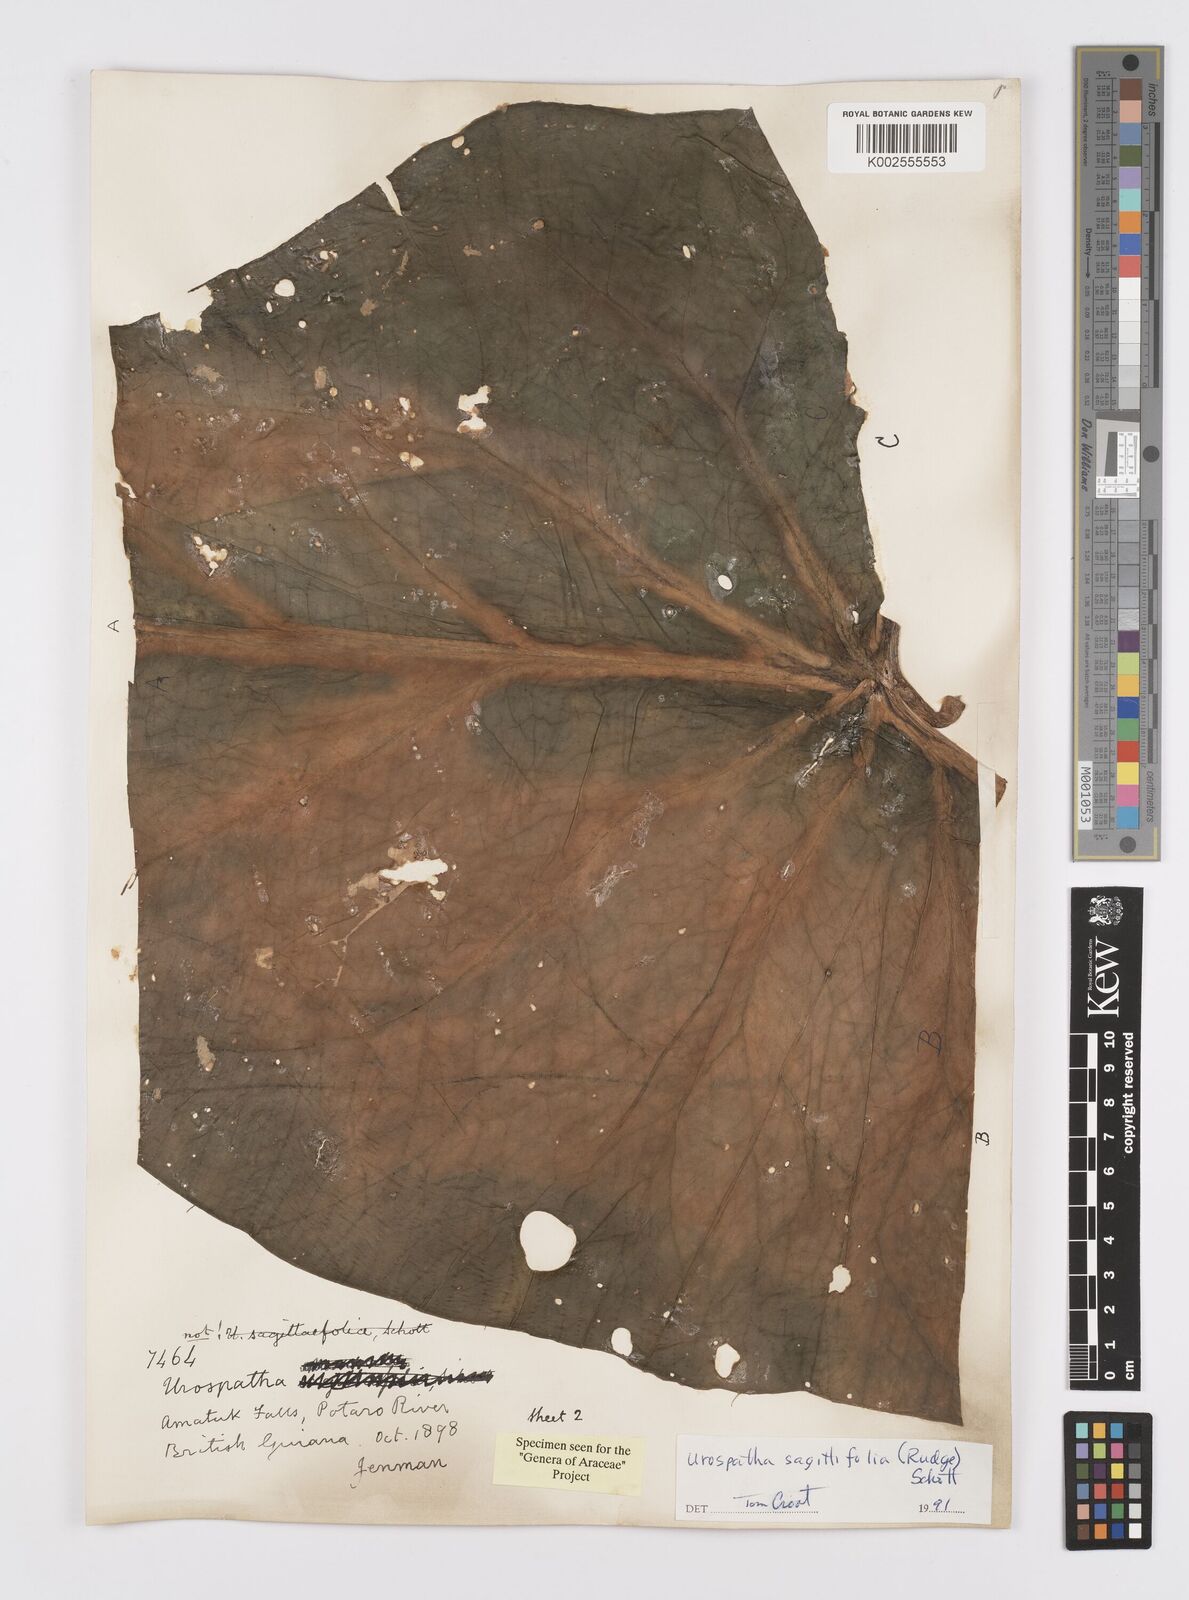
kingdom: Plantae
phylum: Tracheophyta
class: Liliopsida
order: Alismatales
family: Araceae
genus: Urospatha
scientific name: Urospatha sagittifolia
